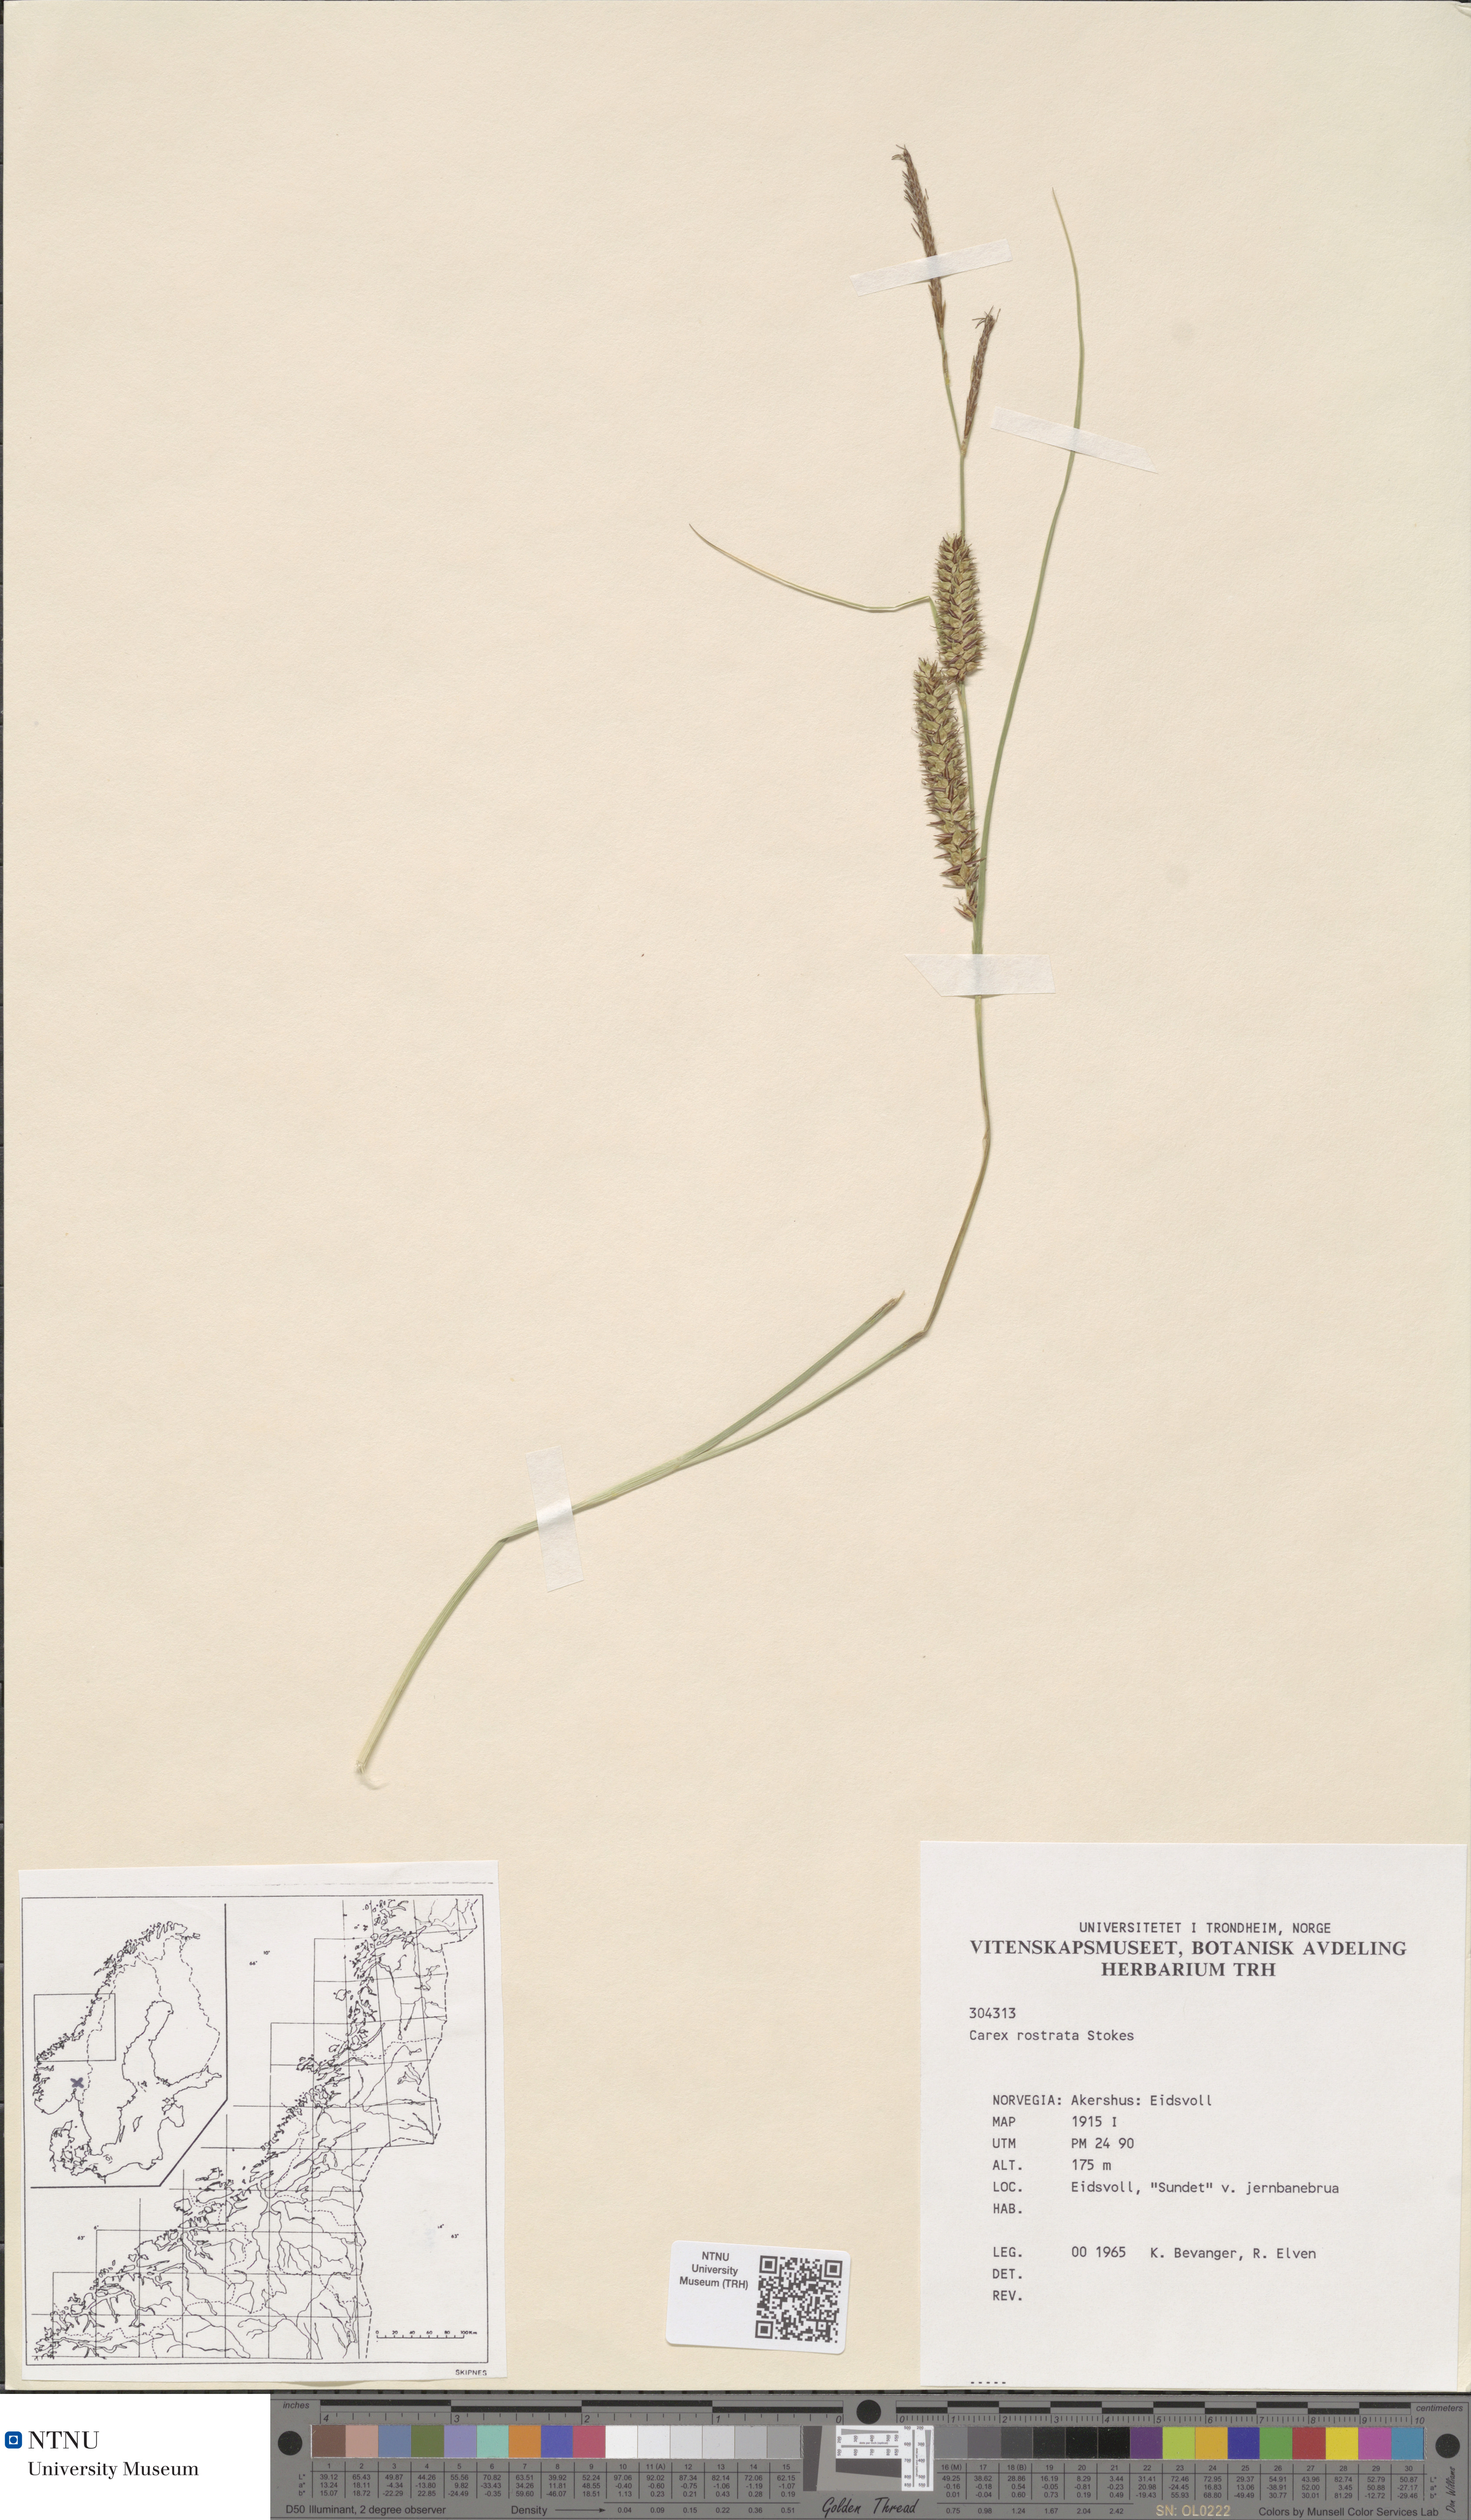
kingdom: Plantae
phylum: Tracheophyta
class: Liliopsida
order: Poales
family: Cyperaceae
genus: Carex
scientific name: Carex rostrata
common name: Bottle sedge
